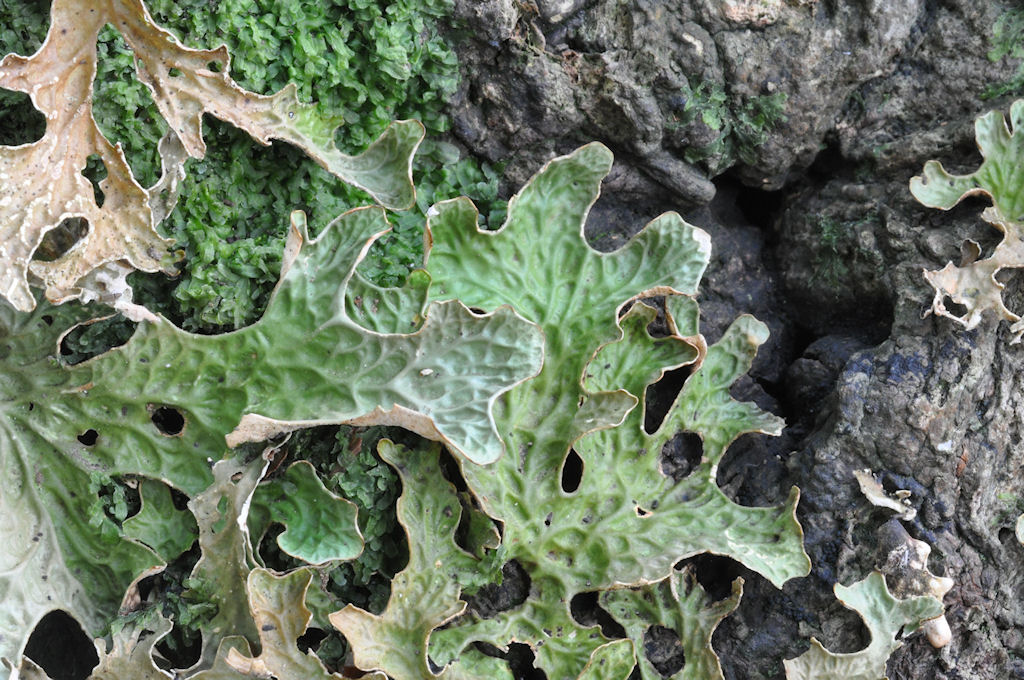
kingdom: Fungi
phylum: Ascomycota
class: Lecanoromycetes
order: Peltigerales
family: Lobariaceae
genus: Lobaria
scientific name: Lobaria pulmonaria
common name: almindelig lungelav
